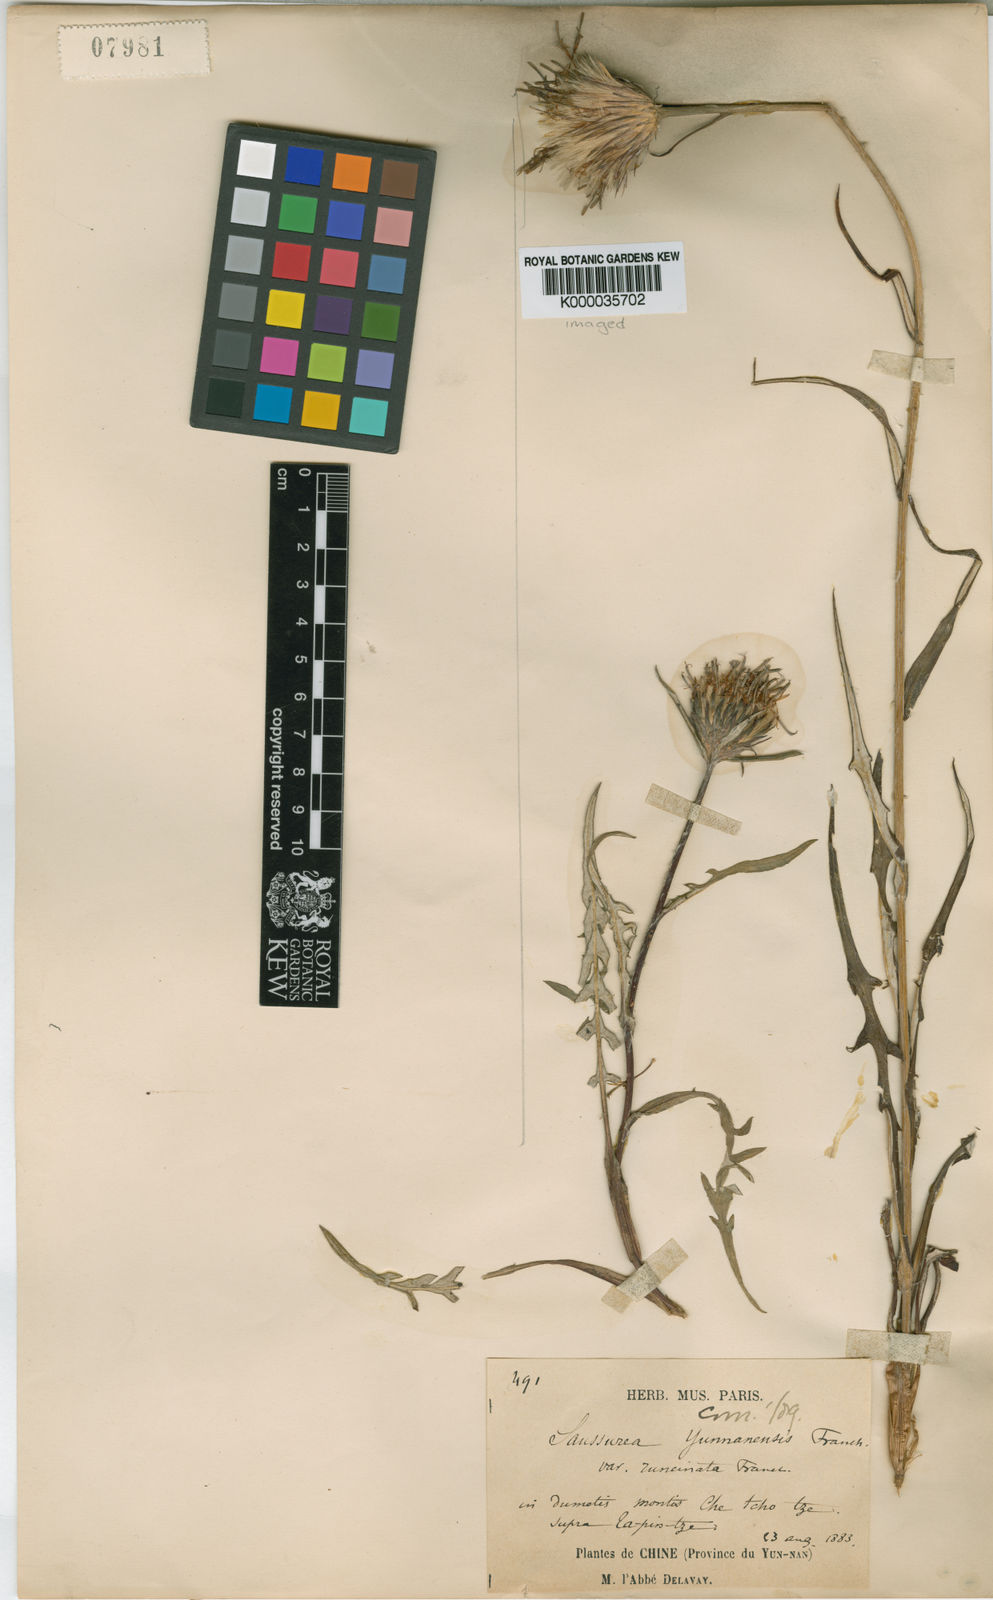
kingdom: Plantae
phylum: Tracheophyta
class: Magnoliopsida
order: Asterales
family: Asteraceae
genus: Saussurea
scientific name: Saussurea yunnanensis
